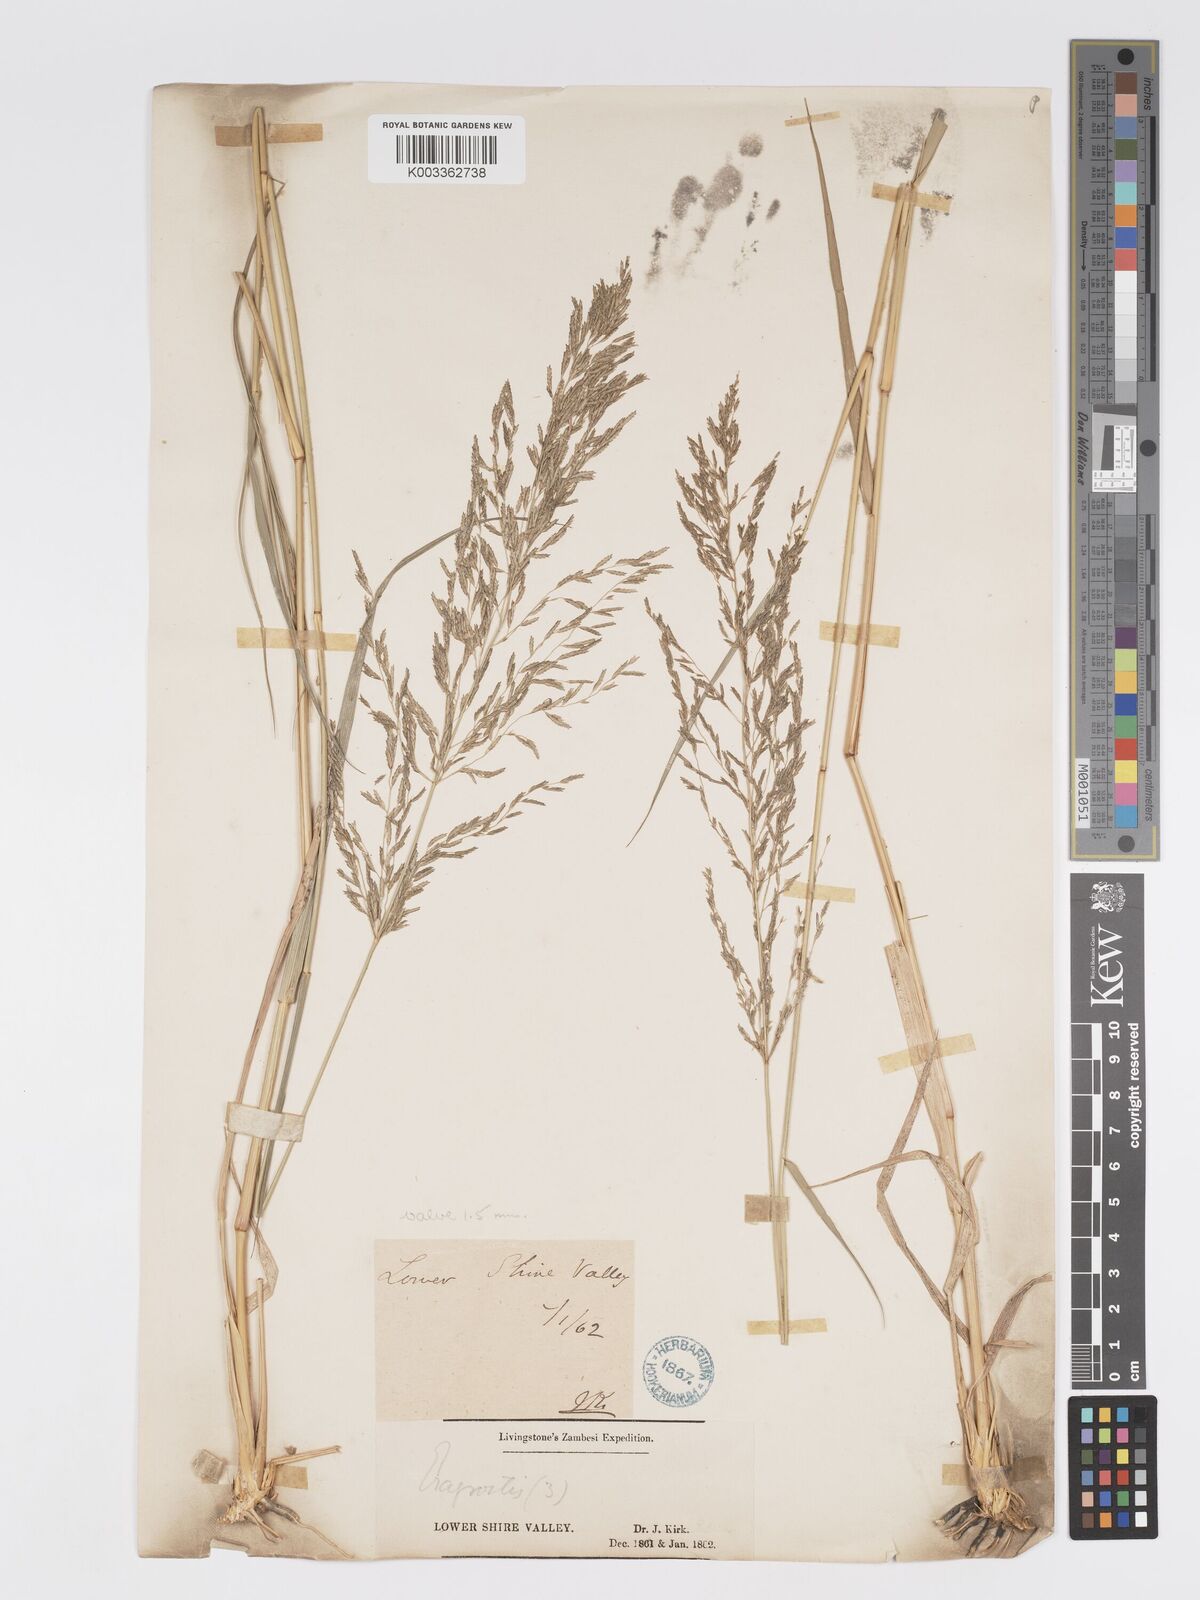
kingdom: Plantae
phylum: Tracheophyta
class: Liliopsida
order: Poales
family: Poaceae
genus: Eragrostis
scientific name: Eragrostis cylindriflora
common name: Cylinderflower lovegrass
